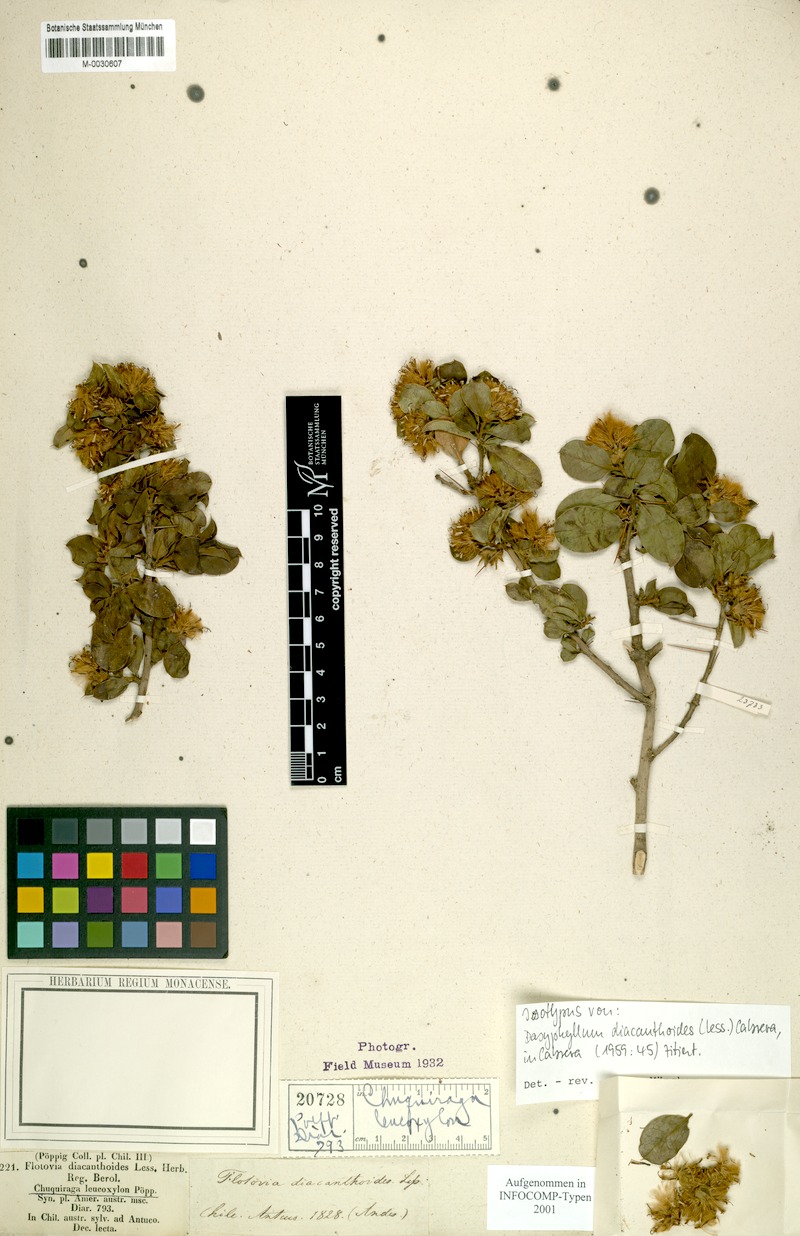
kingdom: Plantae
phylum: Tracheophyta
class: Magnoliopsida
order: Asterales
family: Asteraceae
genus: Archidasyphyllum
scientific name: Archidasyphyllum diacanthoides
